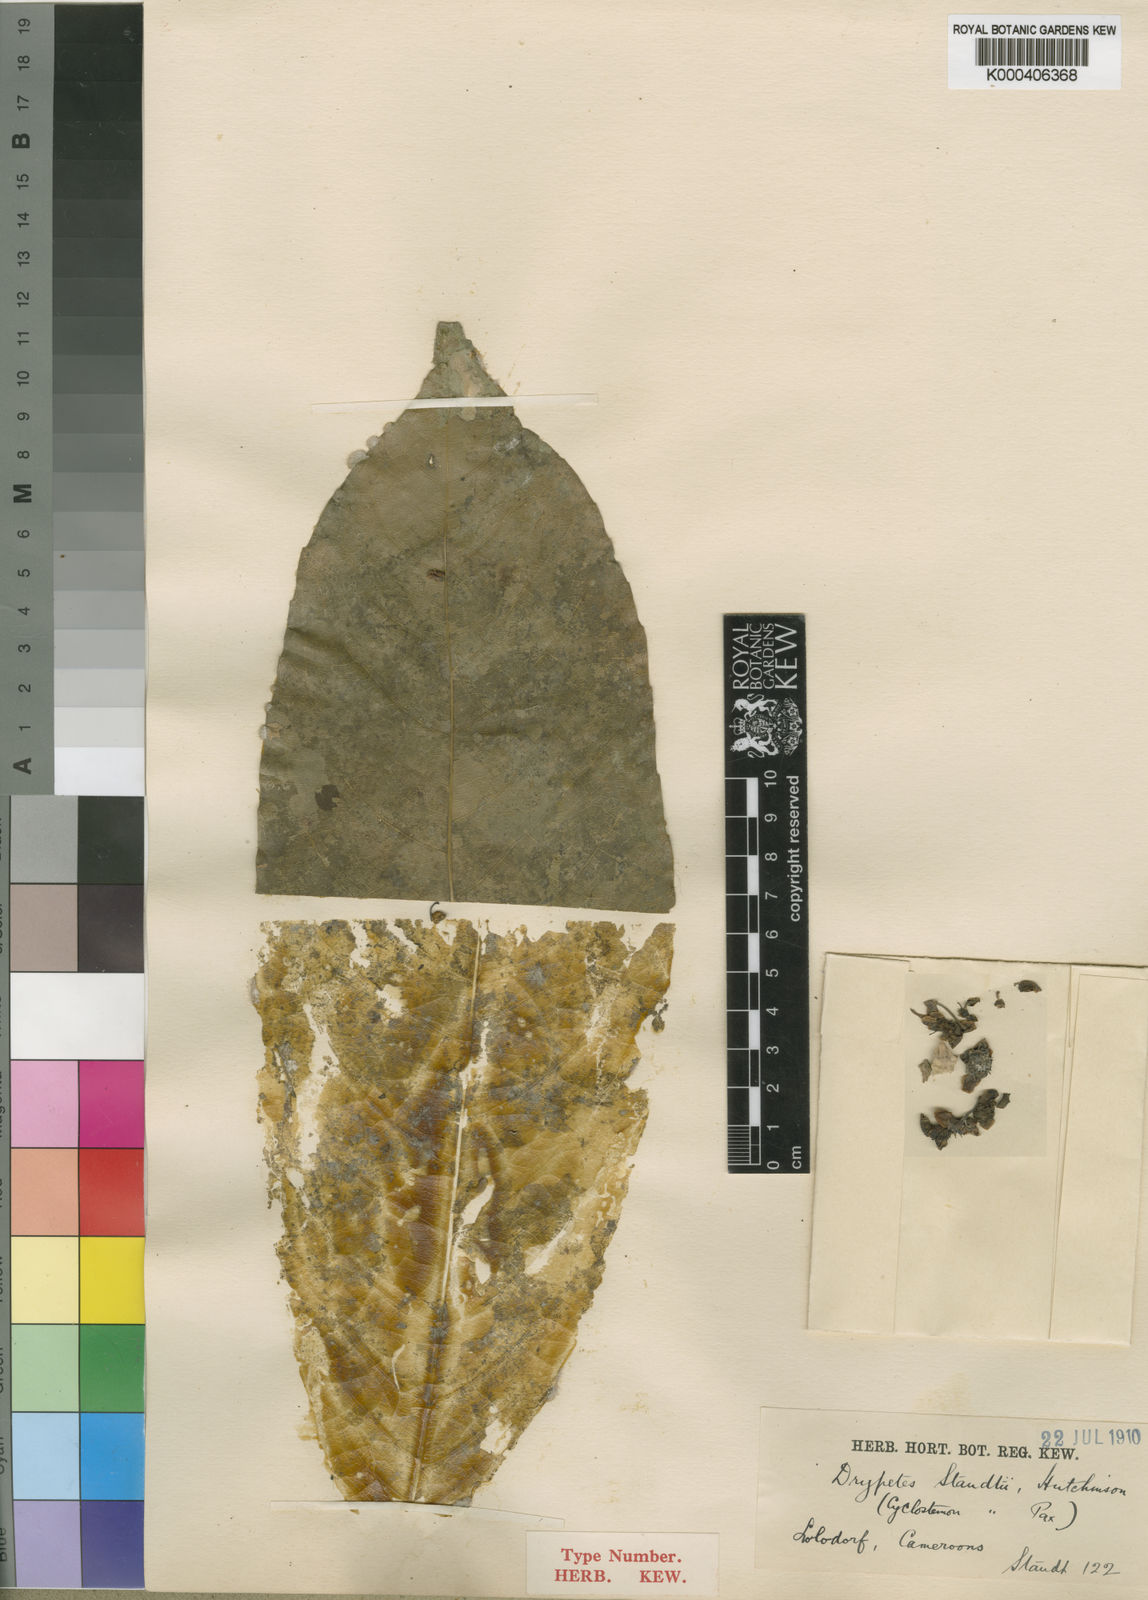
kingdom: Plantae
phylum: Tracheophyta
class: Magnoliopsida
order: Malpighiales
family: Putranjivaceae
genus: Drypetes
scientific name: Drypetes staudtii
